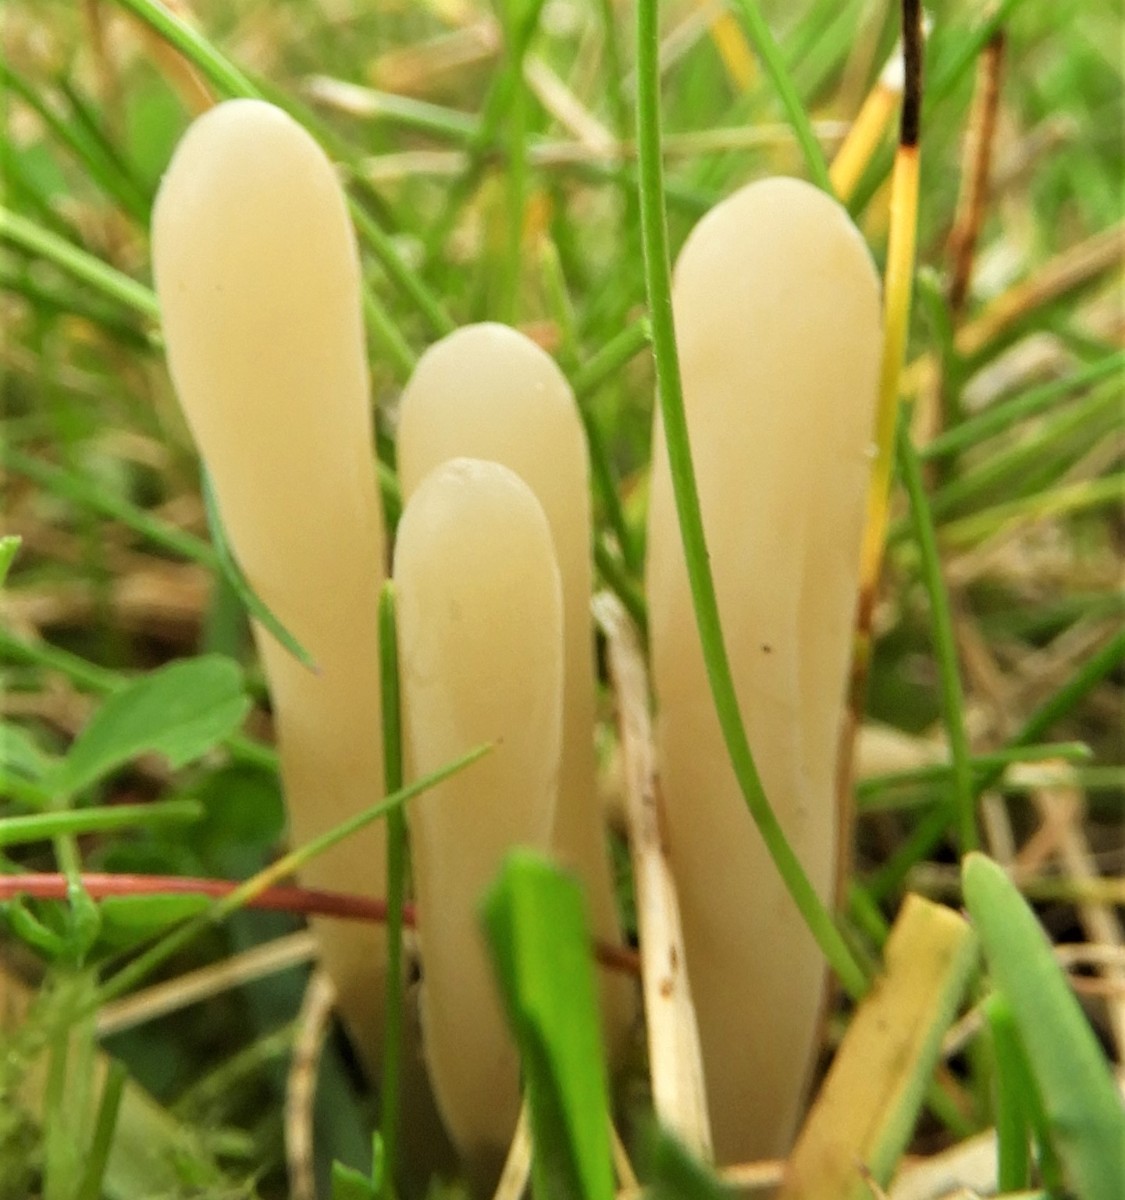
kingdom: Fungi
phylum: Basidiomycota
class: Agaricomycetes
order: Agaricales
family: Clavariaceae
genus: Clavaria
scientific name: Clavaria tenuipes
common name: isabellafarvet køllesvamp
